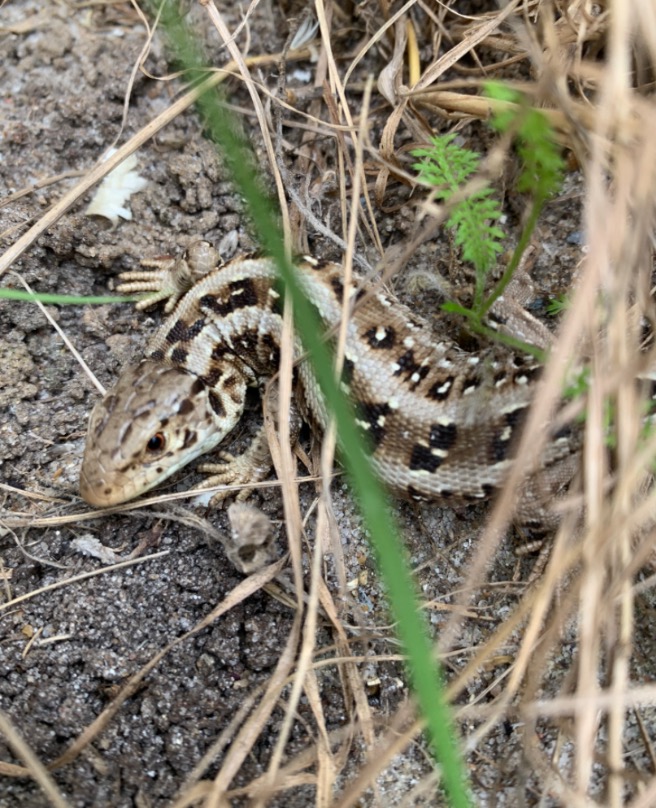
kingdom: Animalia
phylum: Chordata
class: Squamata
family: Lacertidae
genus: Lacerta
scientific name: Lacerta agilis
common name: Markfirben
